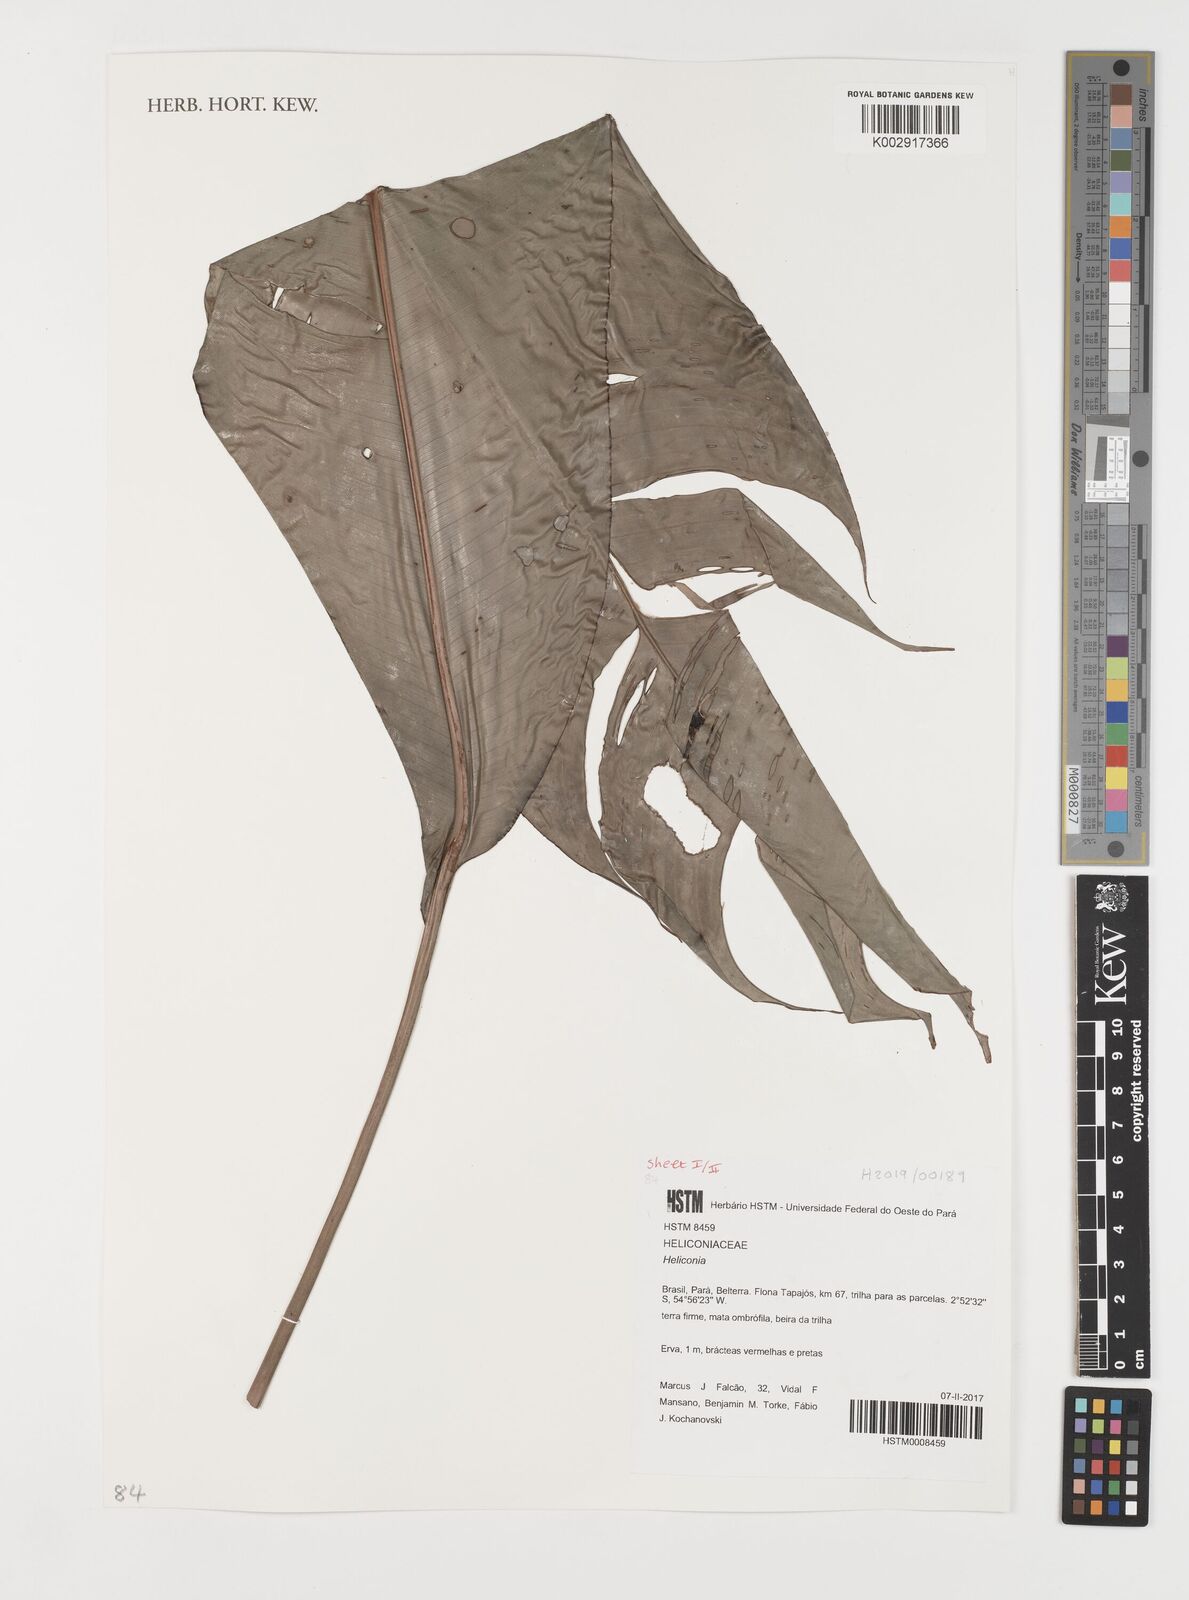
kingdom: Plantae
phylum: Tracheophyta
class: Liliopsida
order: Zingiberales
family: Heliconiaceae
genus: Heliconia
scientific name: Heliconia
